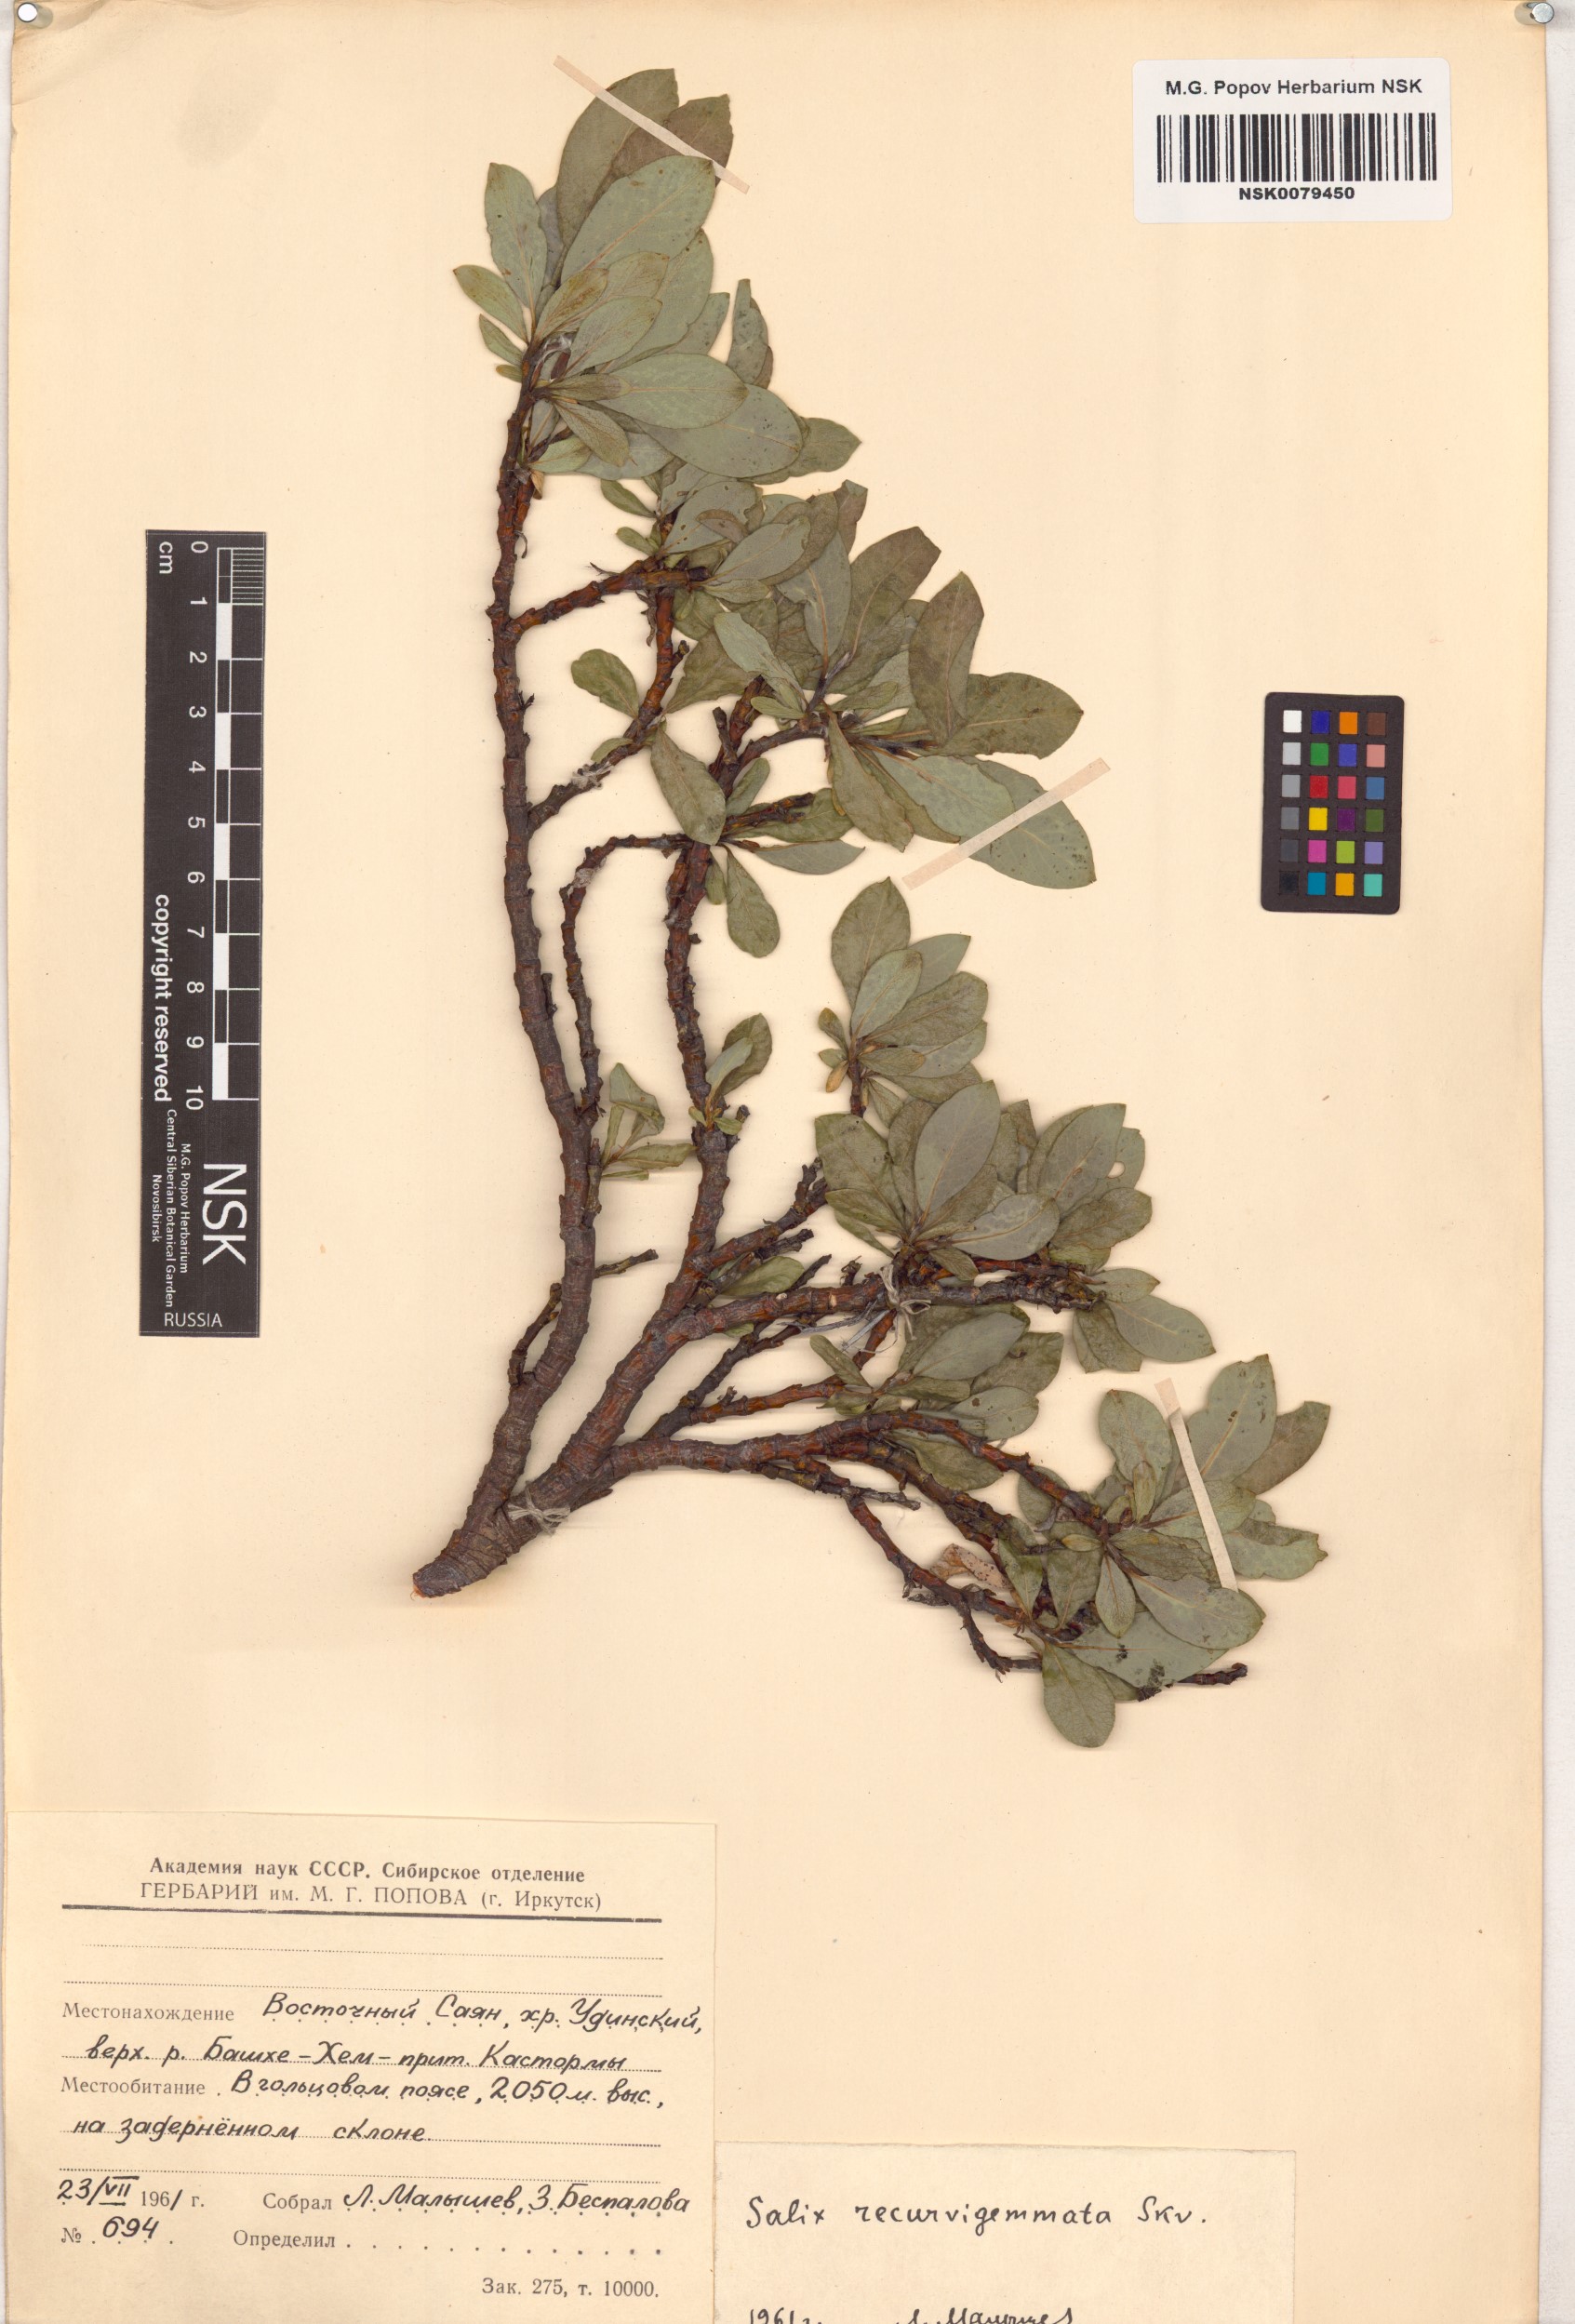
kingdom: Plantae
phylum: Tracheophyta
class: Magnoliopsida
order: Malpighiales
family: Salicaceae
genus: Salix
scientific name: Salix recurvigemmata
